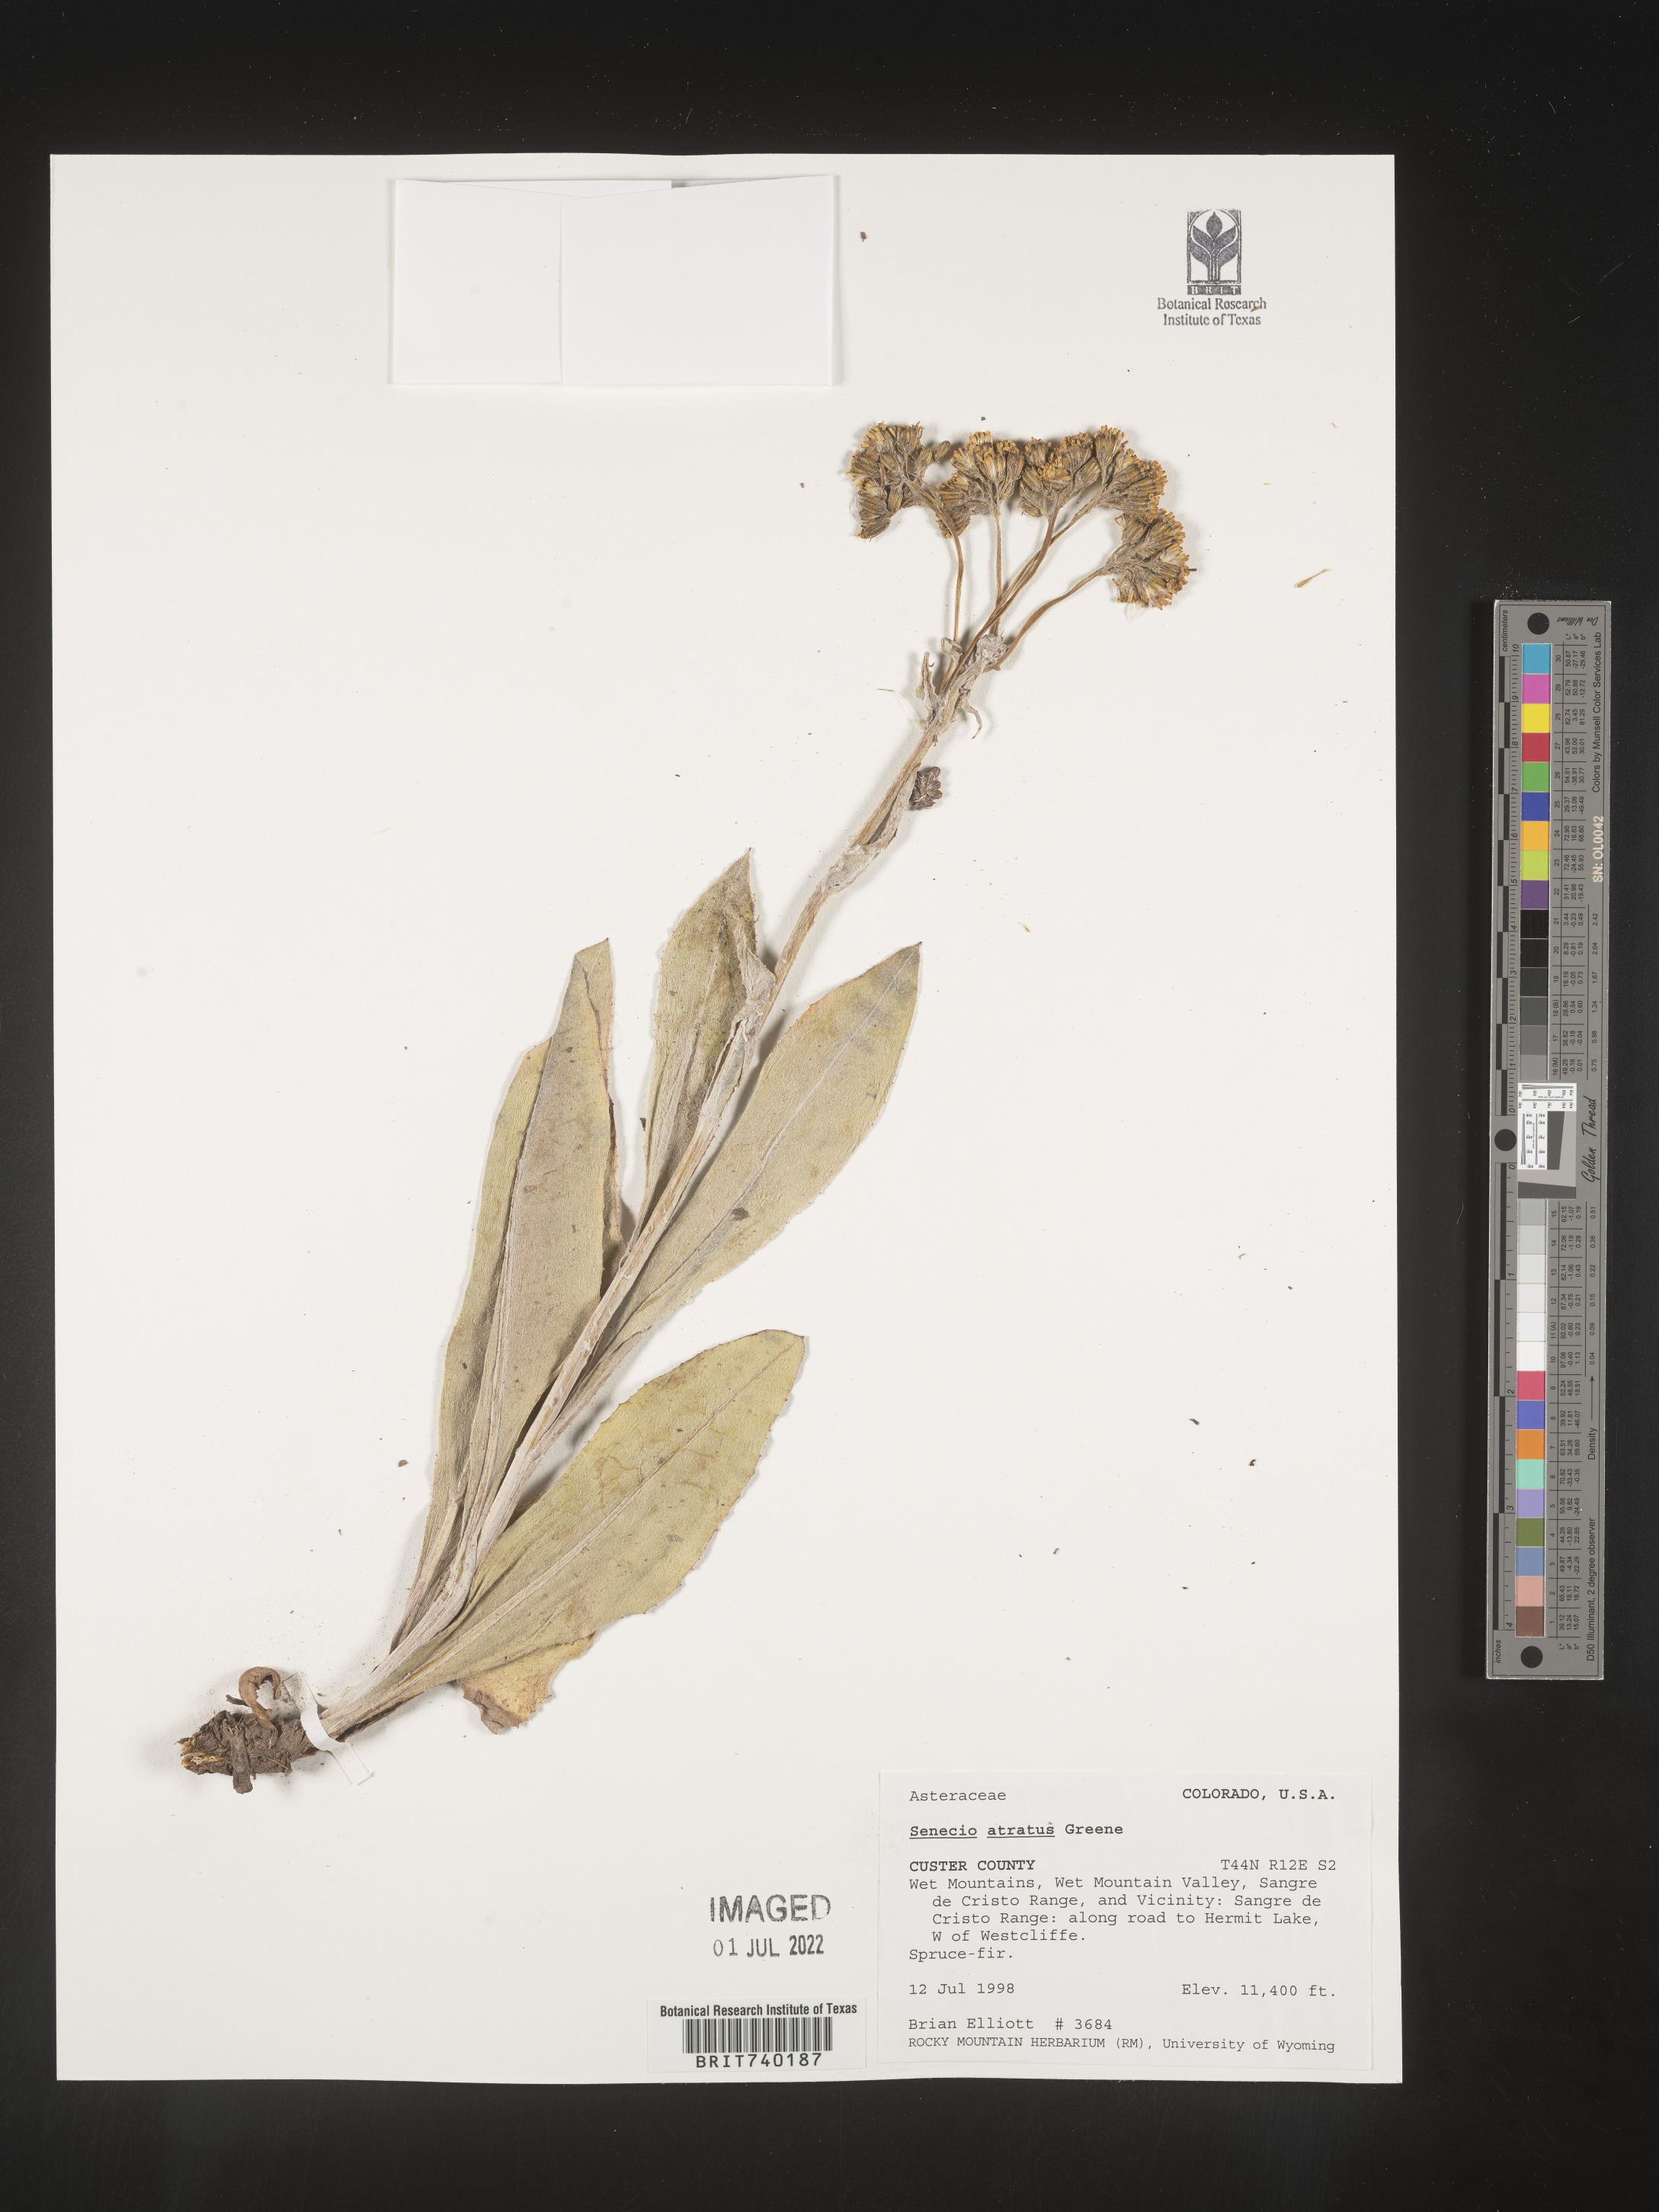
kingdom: Plantae
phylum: Tracheophyta
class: Magnoliopsida
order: Asterales
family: Asteraceae
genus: Senecio
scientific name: Senecio atratus
